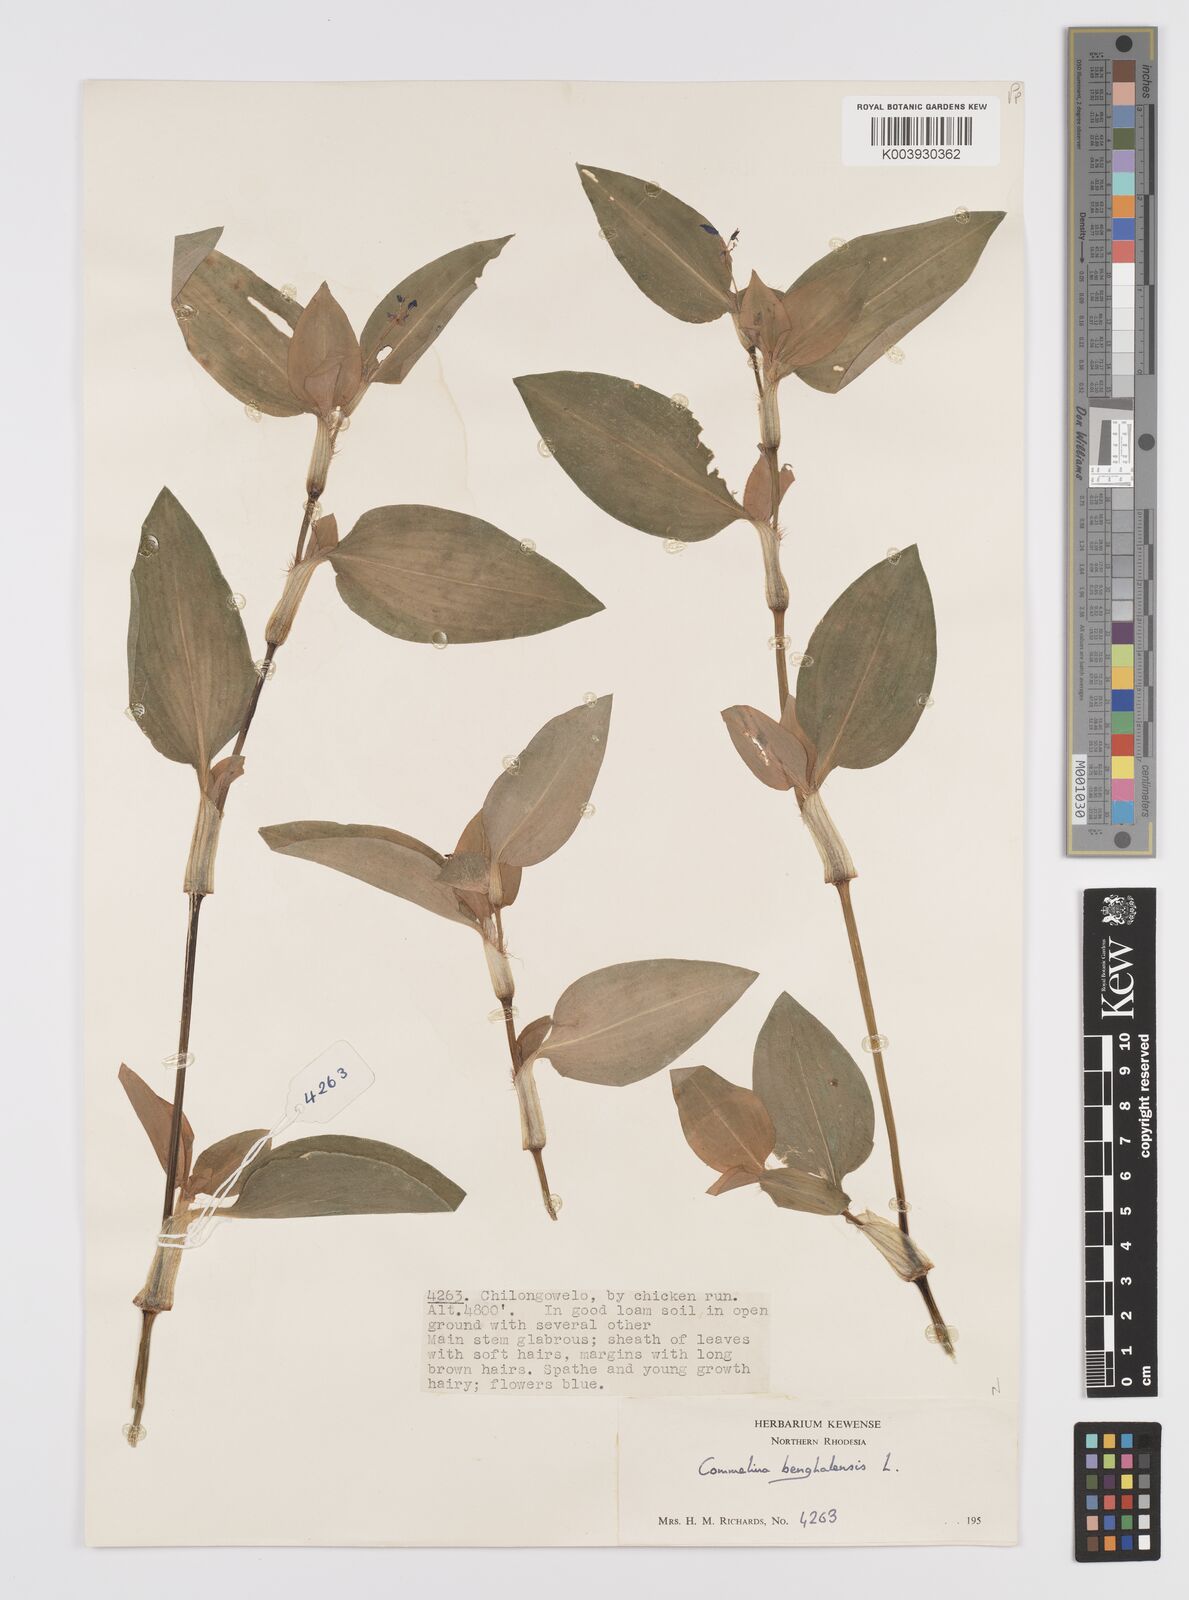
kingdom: Plantae
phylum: Tracheophyta
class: Liliopsida
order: Commelinales
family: Commelinaceae
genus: Commelina
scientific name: Commelina benghalensis
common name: Jio
